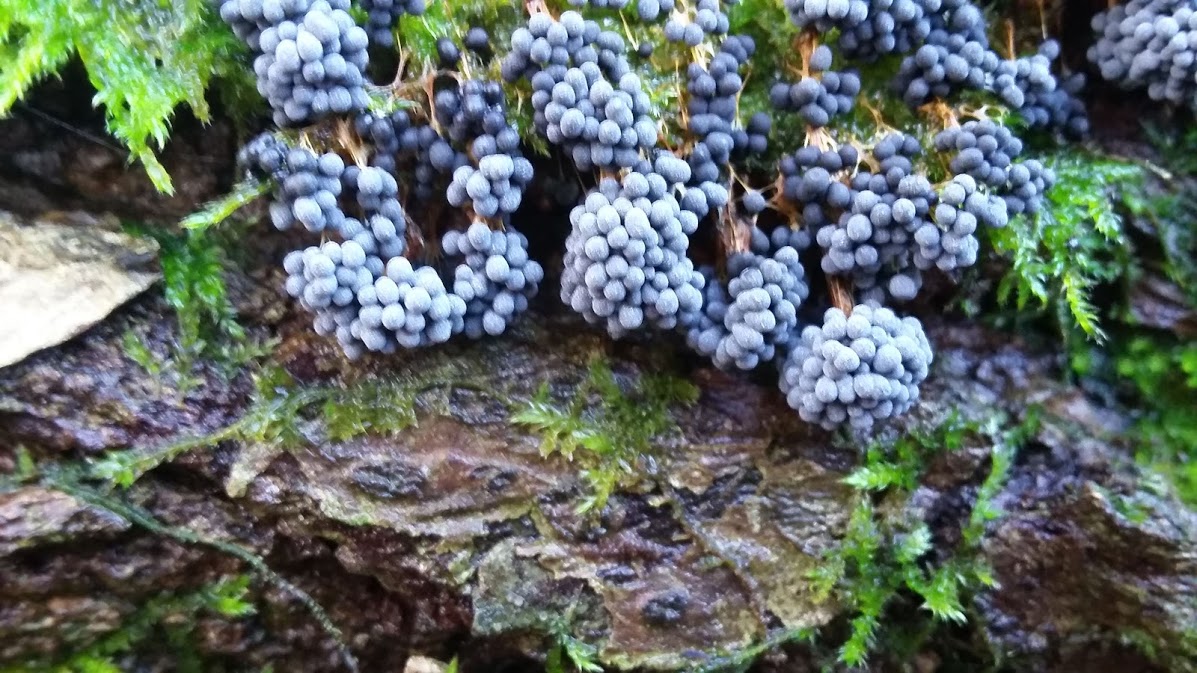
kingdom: Protozoa
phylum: Mycetozoa
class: Myxomycetes
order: Physarales
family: Physaraceae
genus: Badhamia
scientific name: Badhamia utricularis
